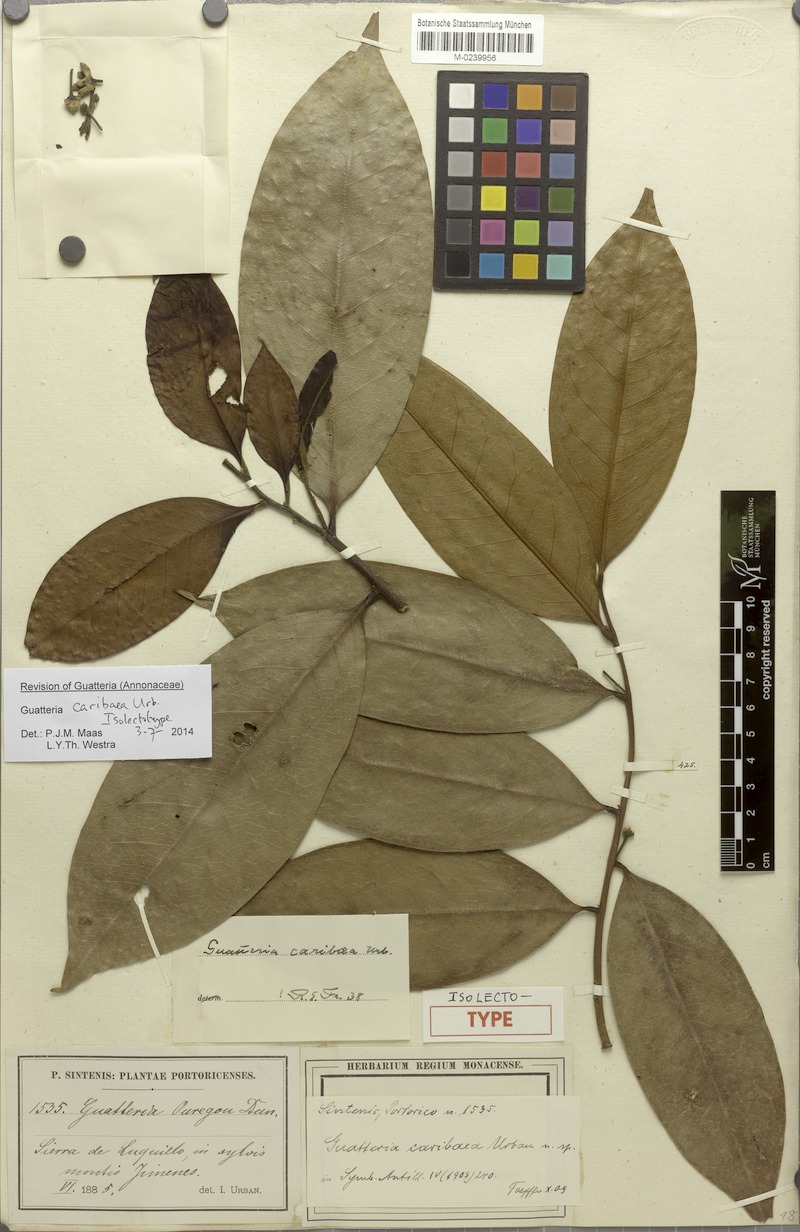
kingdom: Plantae
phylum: Tracheophyta
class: Magnoliopsida
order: Magnoliales
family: Annonaceae
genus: Guatteria
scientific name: Guatteria caribaea
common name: Wild soursop
